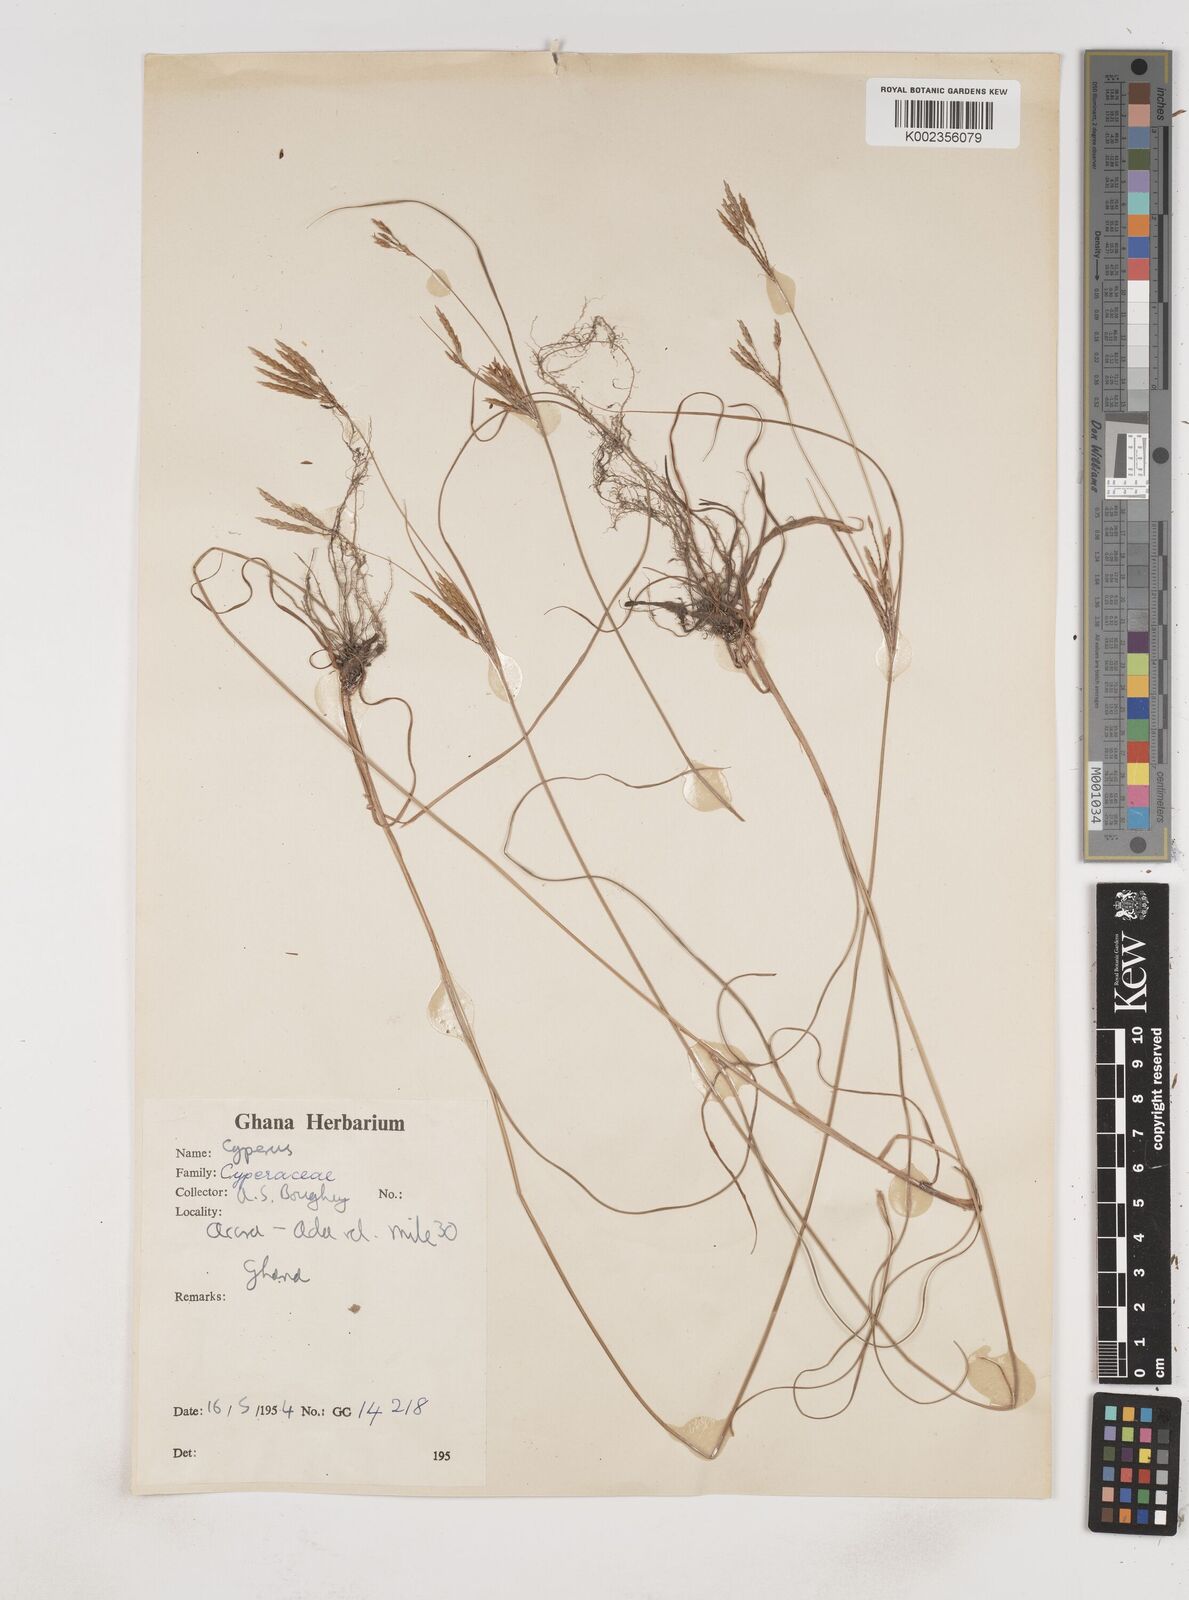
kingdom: Plantae
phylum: Tracheophyta
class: Liliopsida
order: Poales
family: Cyperaceae
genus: Cyperus
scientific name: Cyperus tenuiculmis
